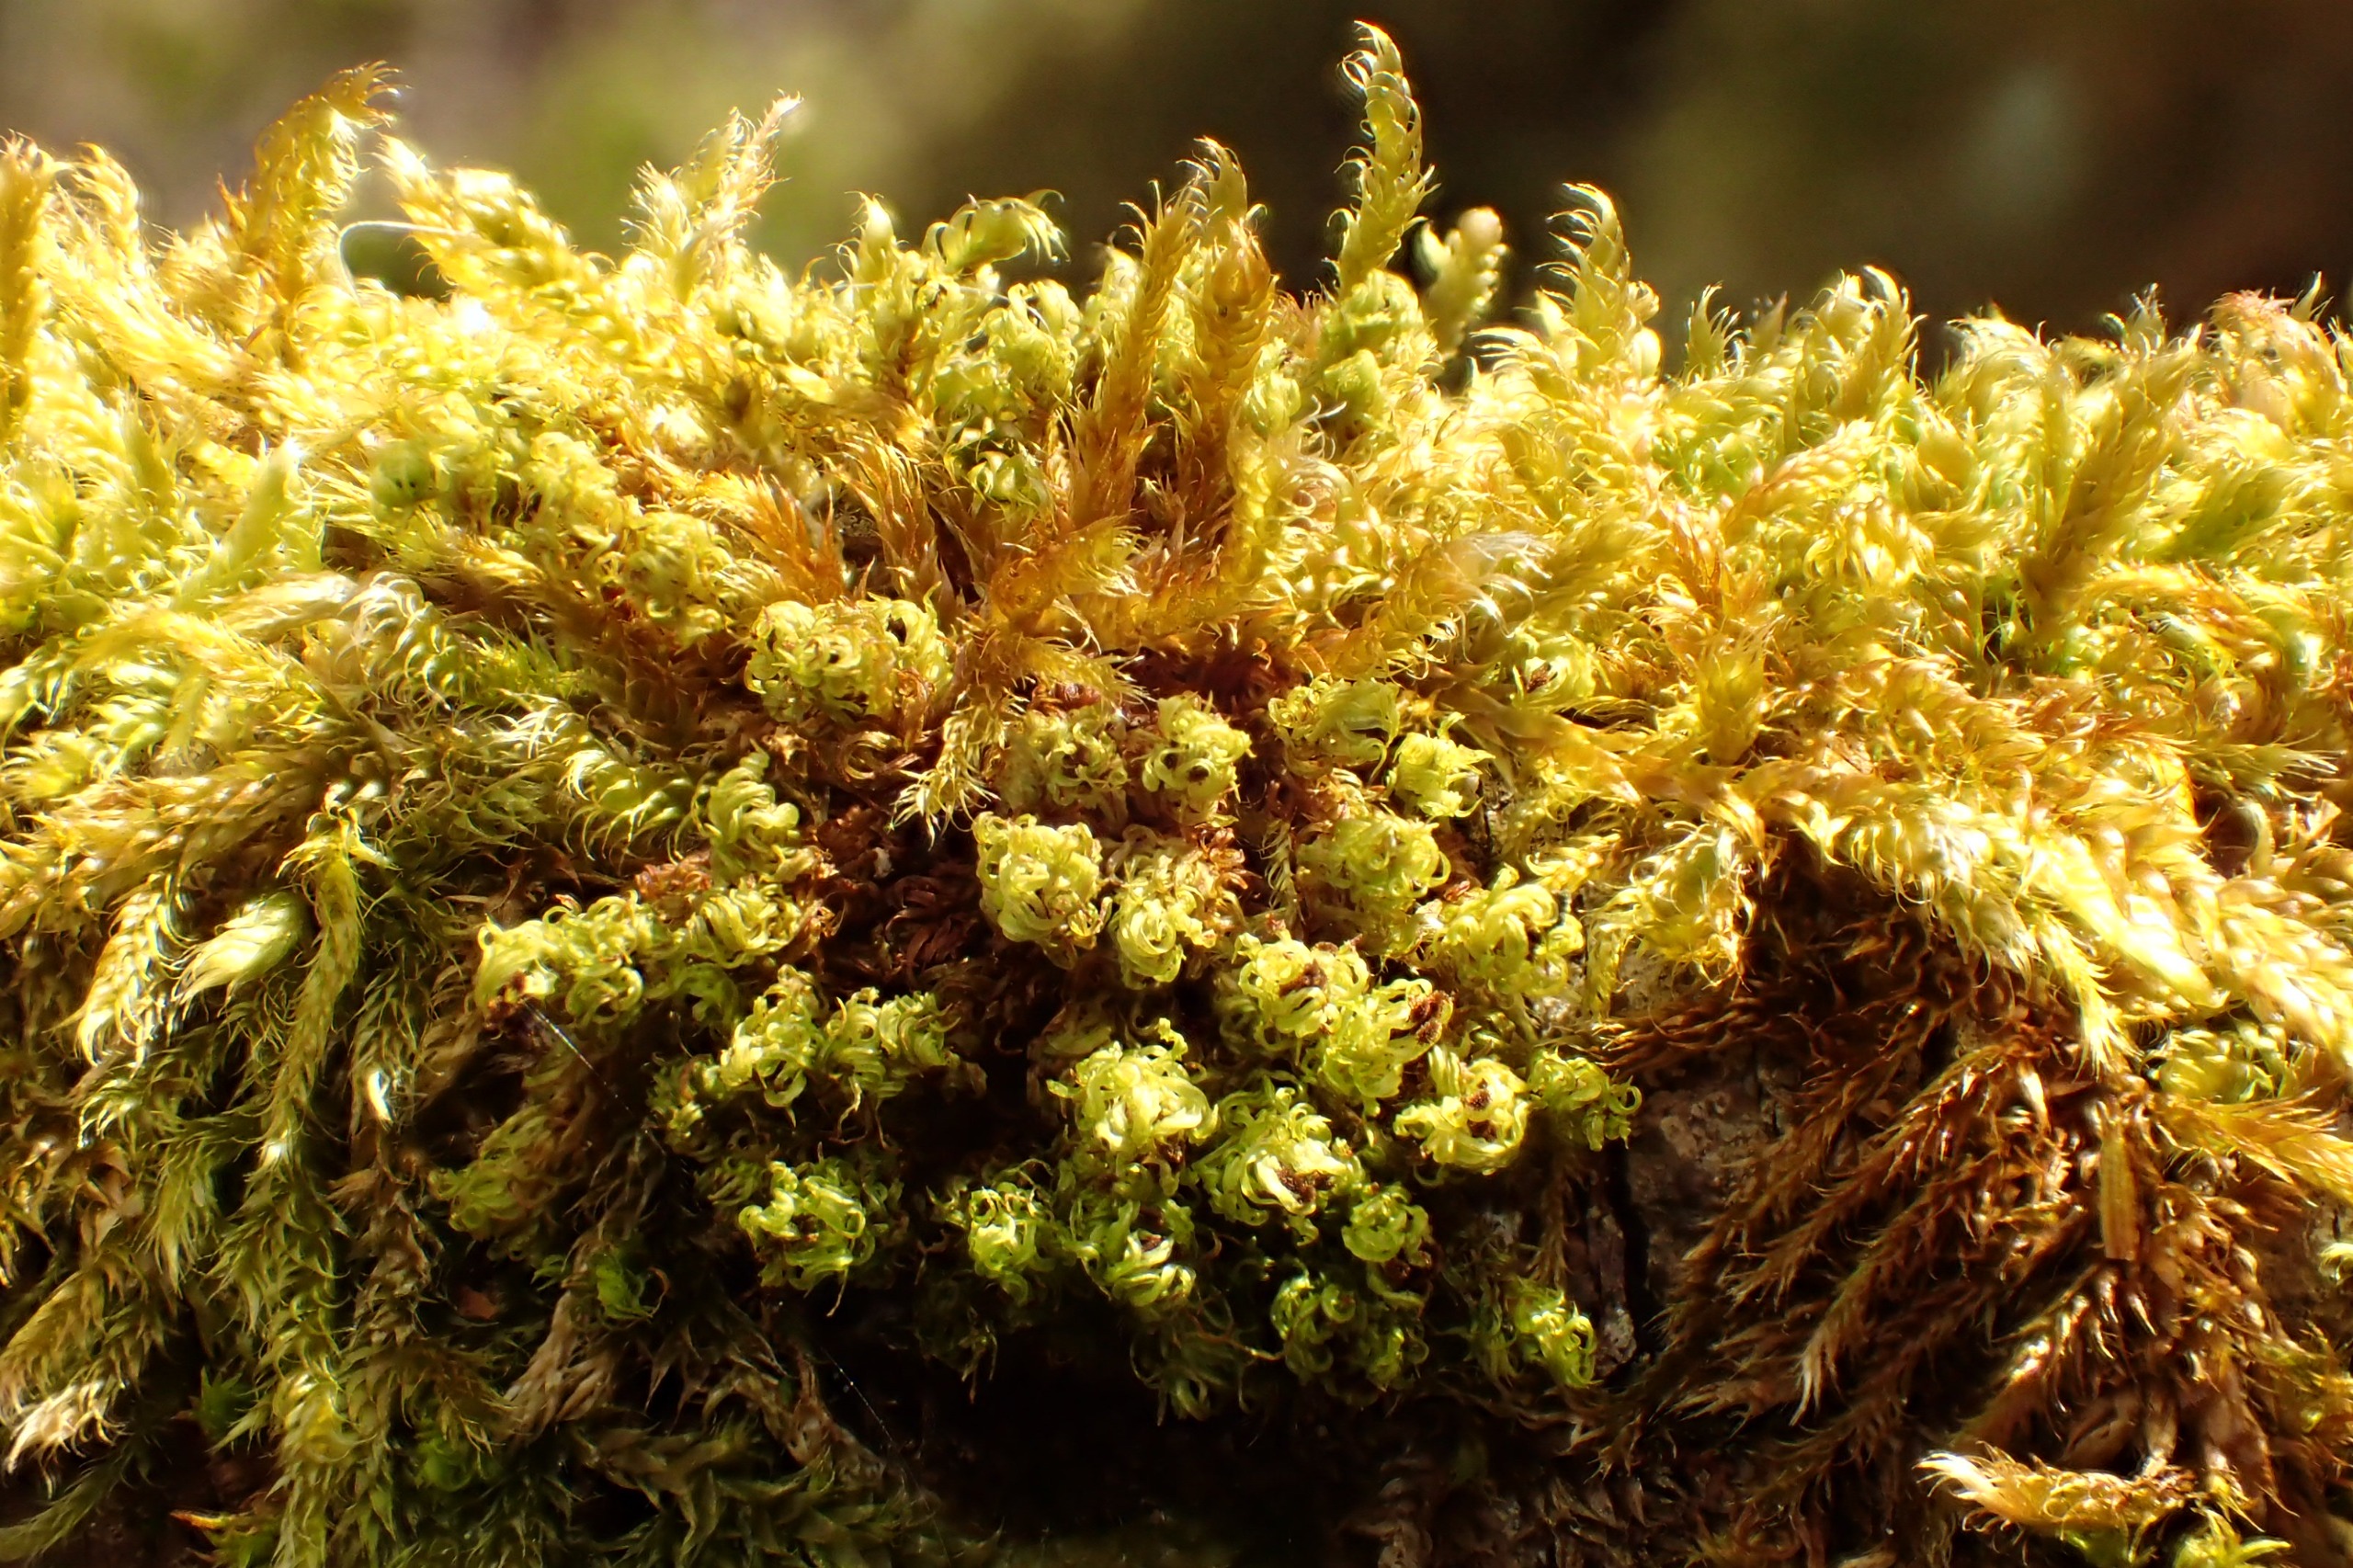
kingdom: Plantae
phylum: Bryophyta
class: Bryopsida
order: Orthotrichales
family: Orthotrichaceae
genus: Plenogemma
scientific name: Plenogemma phyllantha
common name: Stor låddenhætte
